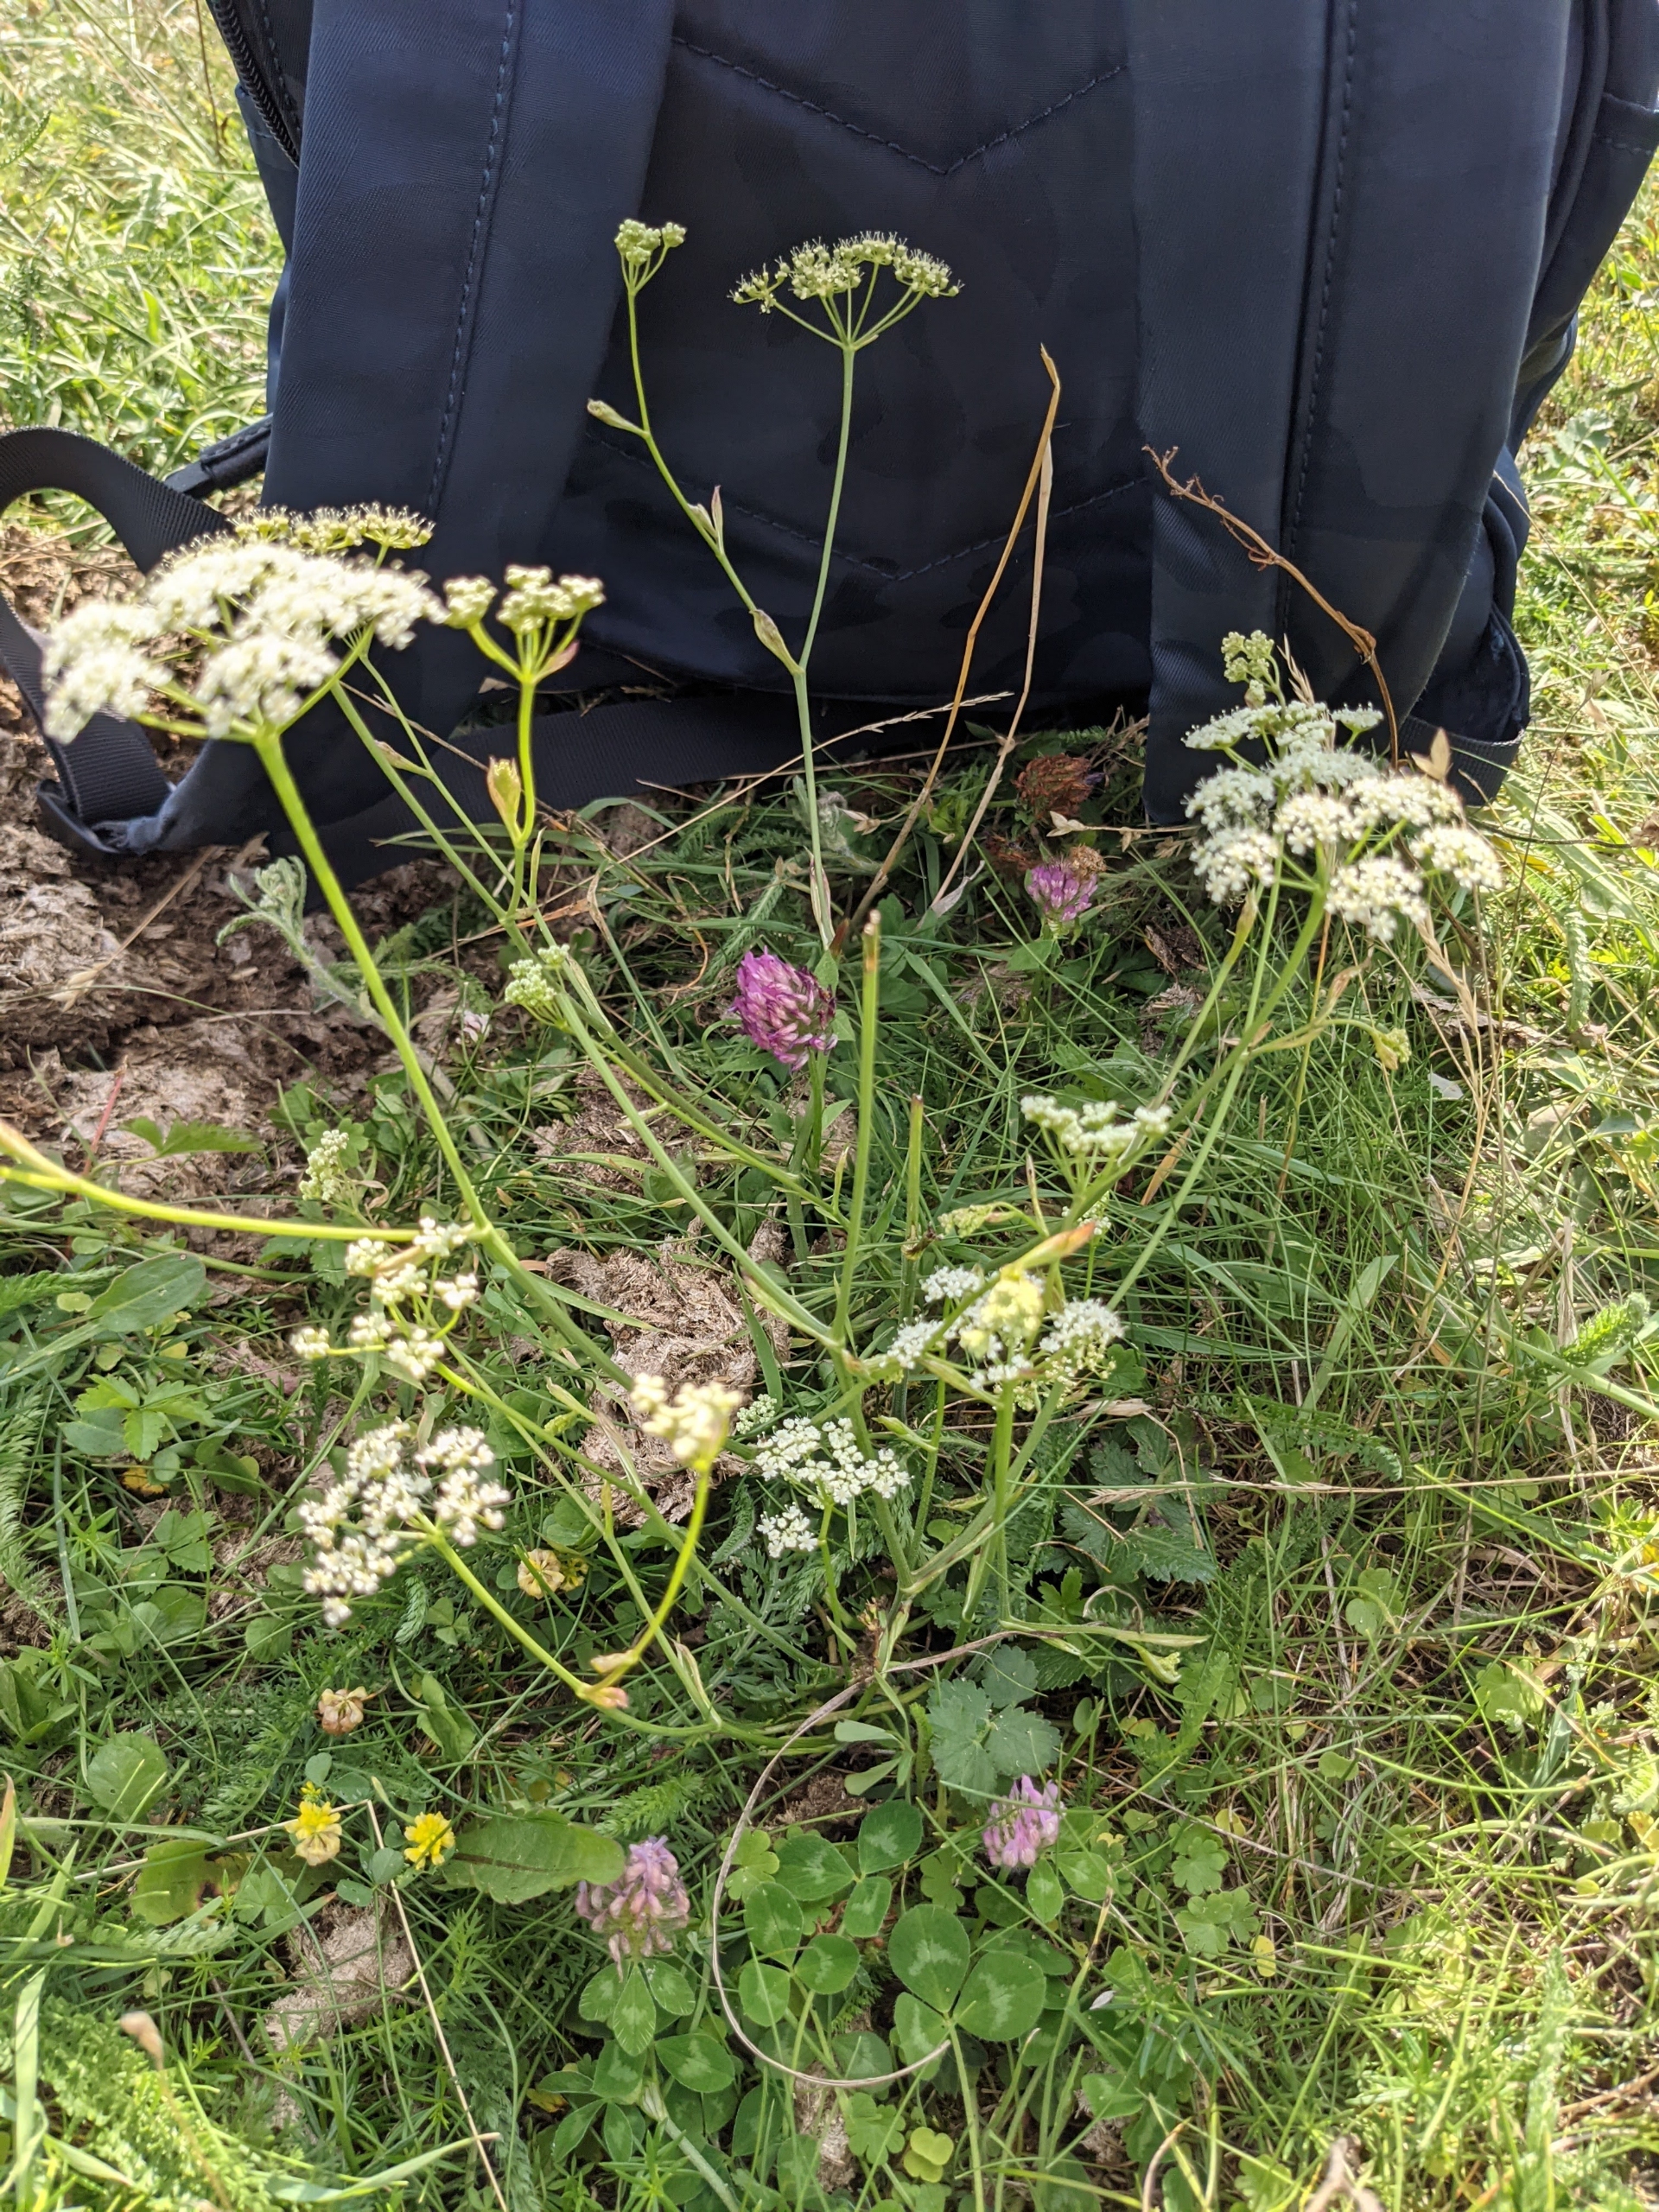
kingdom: Plantae
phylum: Tracheophyta
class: Magnoliopsida
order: Apiales
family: Apiaceae
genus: Pimpinella
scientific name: Pimpinella saxifraga
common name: Almindelig pimpinelle
